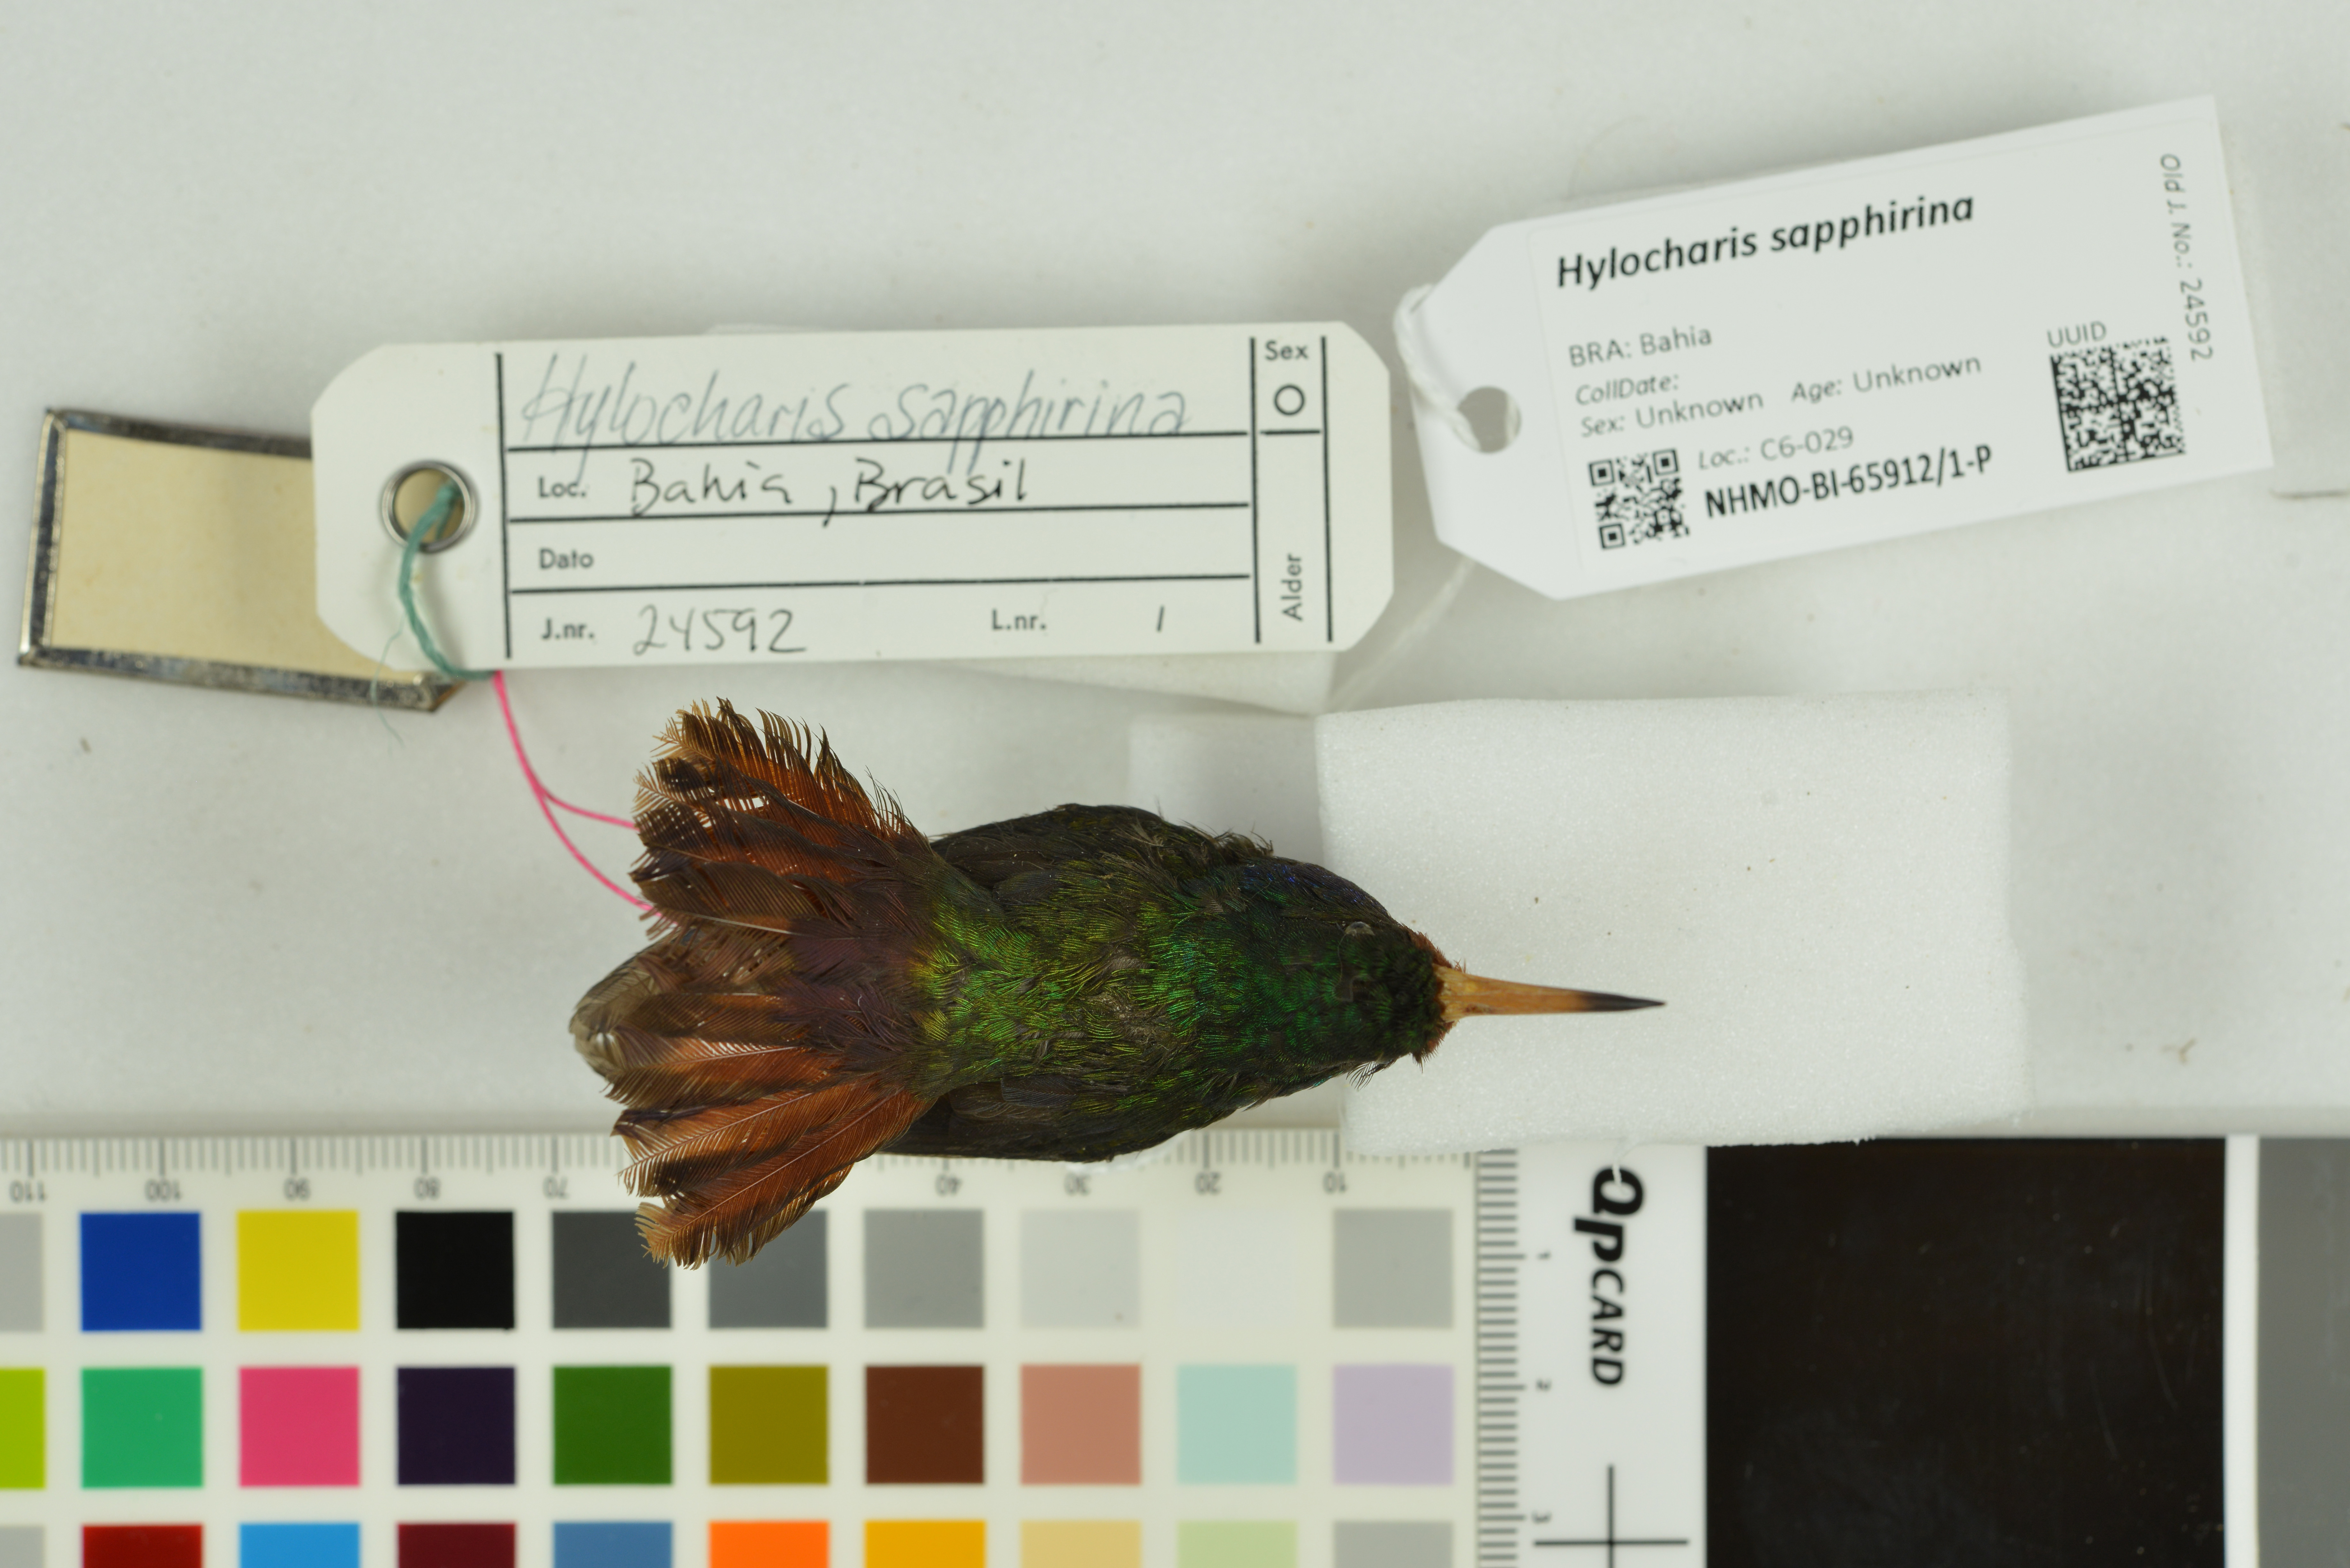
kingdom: Animalia
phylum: Chordata
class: Aves
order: Apodiformes
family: Trochilidae
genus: Hylocharis
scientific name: Hylocharis sapphirina
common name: Rufous-throated sapphire
